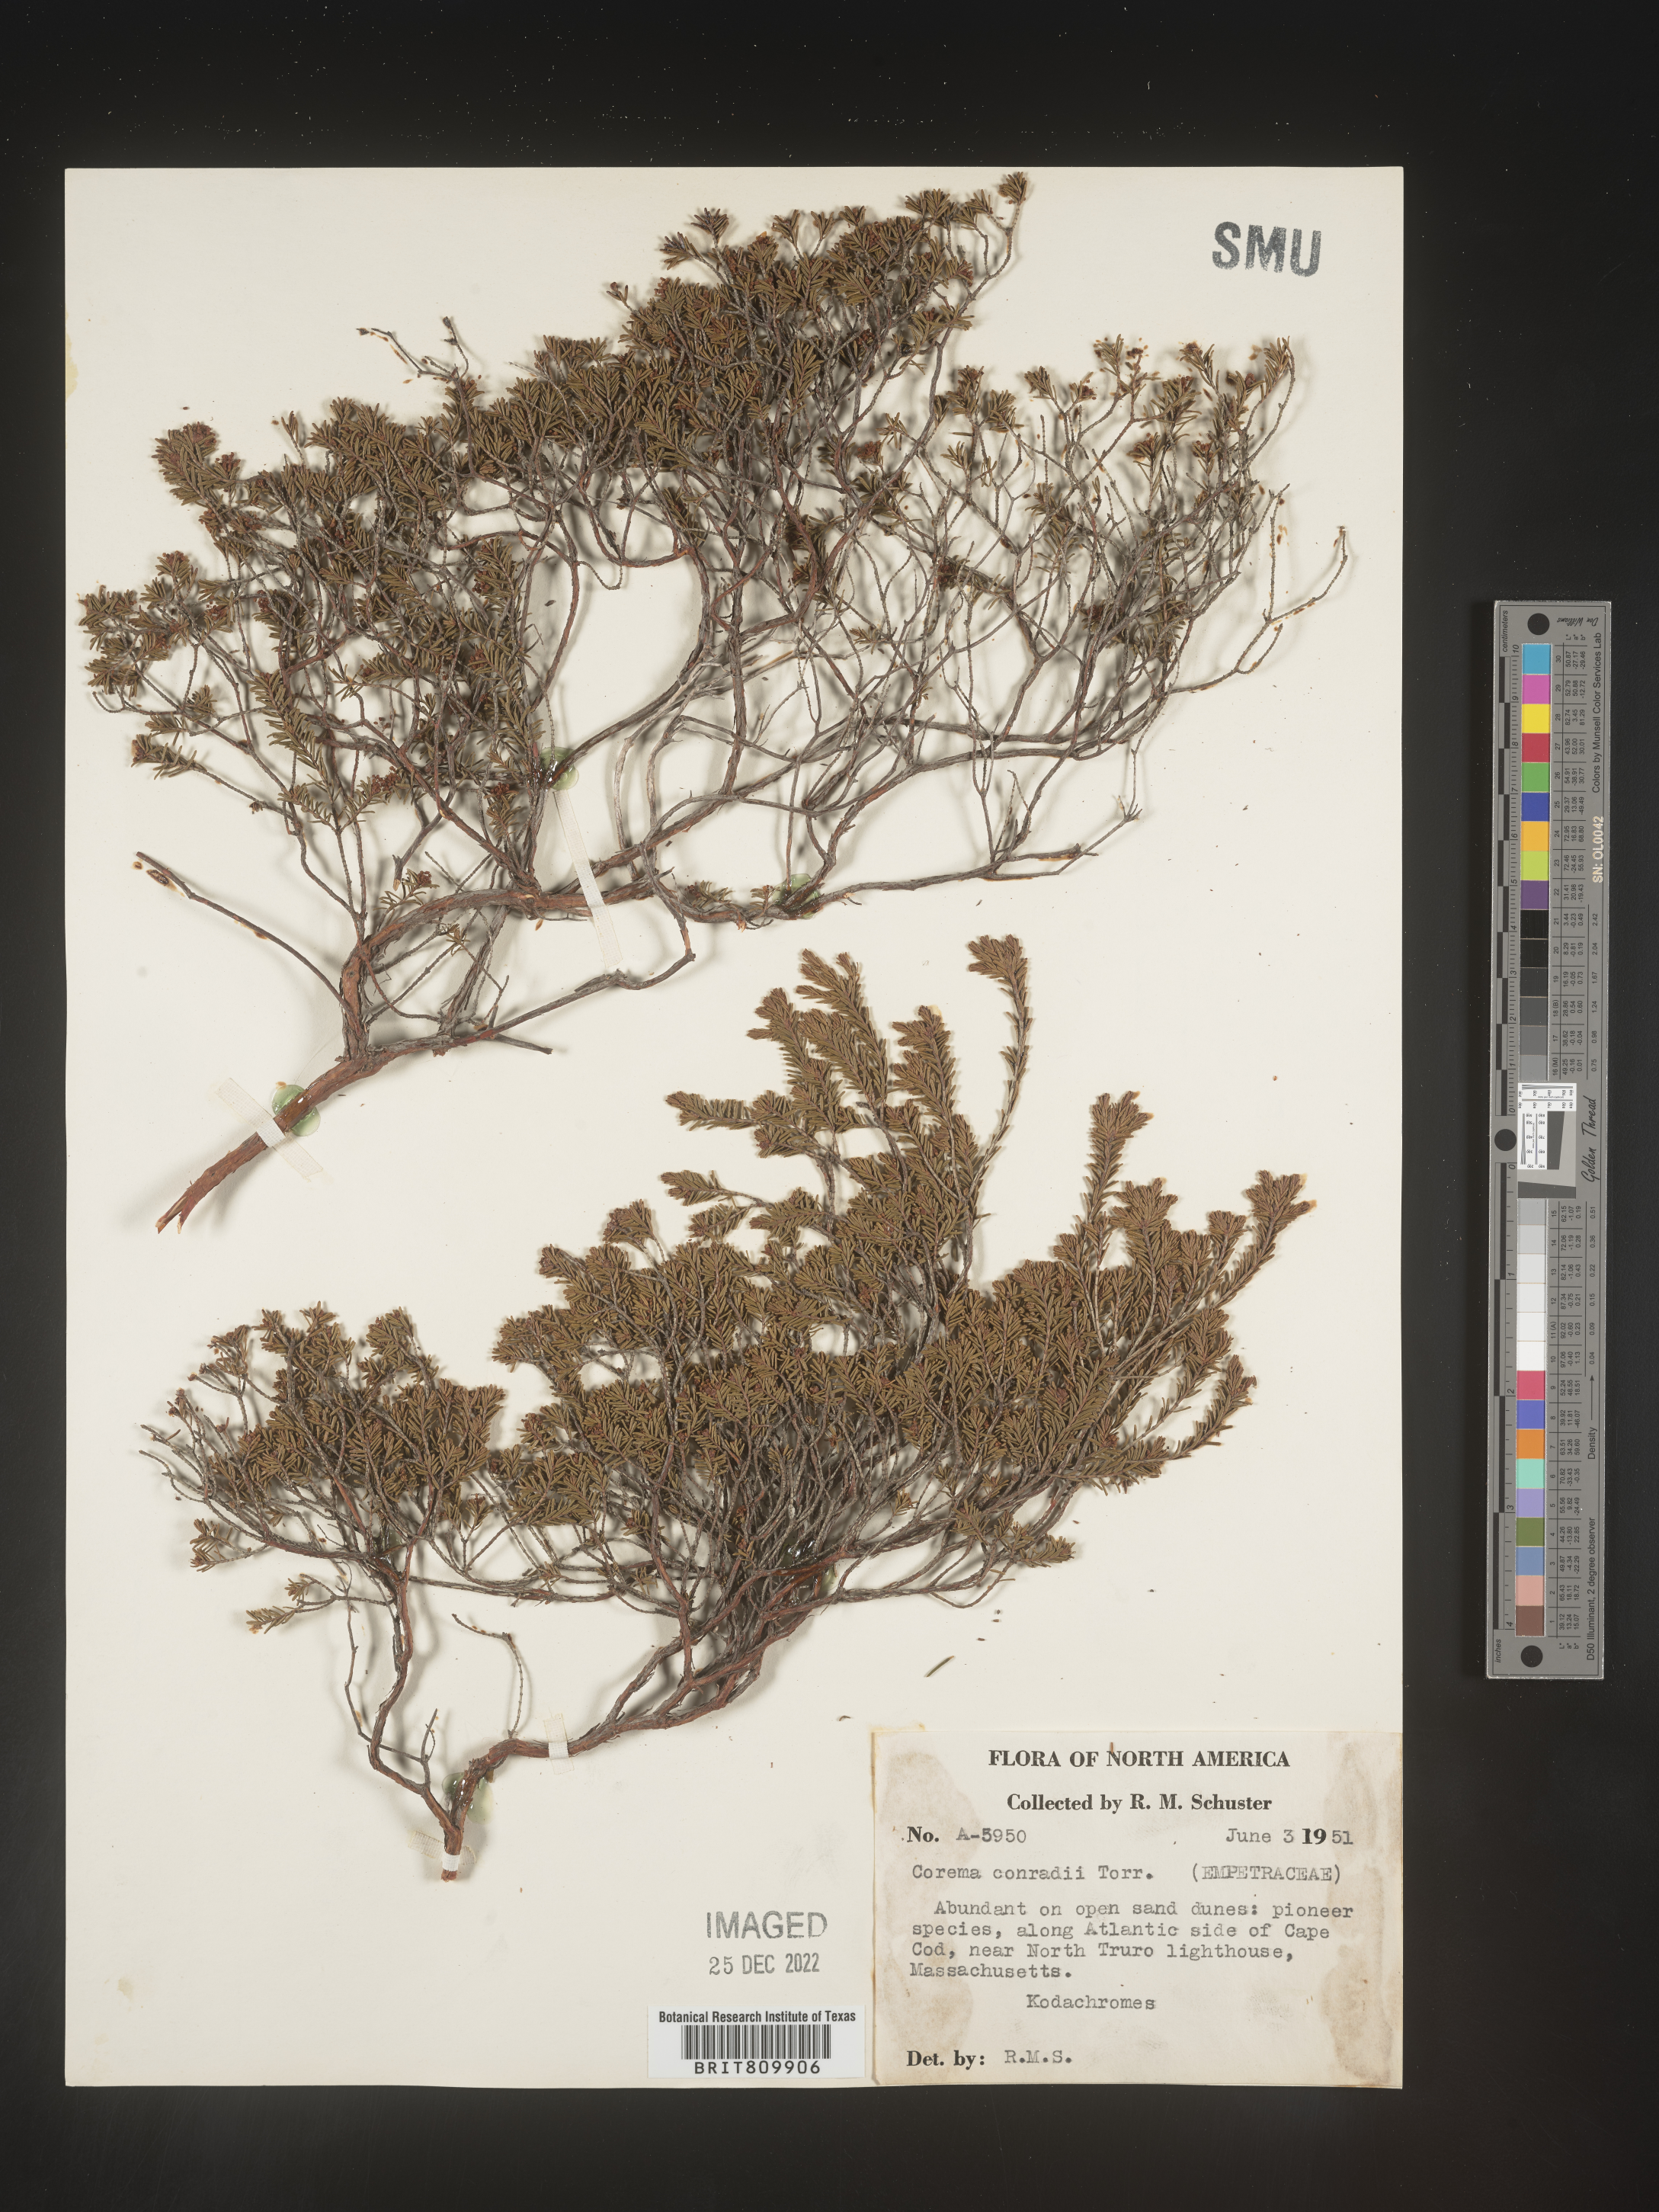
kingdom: Plantae
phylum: Tracheophyta
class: Magnoliopsida
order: Ericales
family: Ericaceae
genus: Corema
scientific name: Corema
